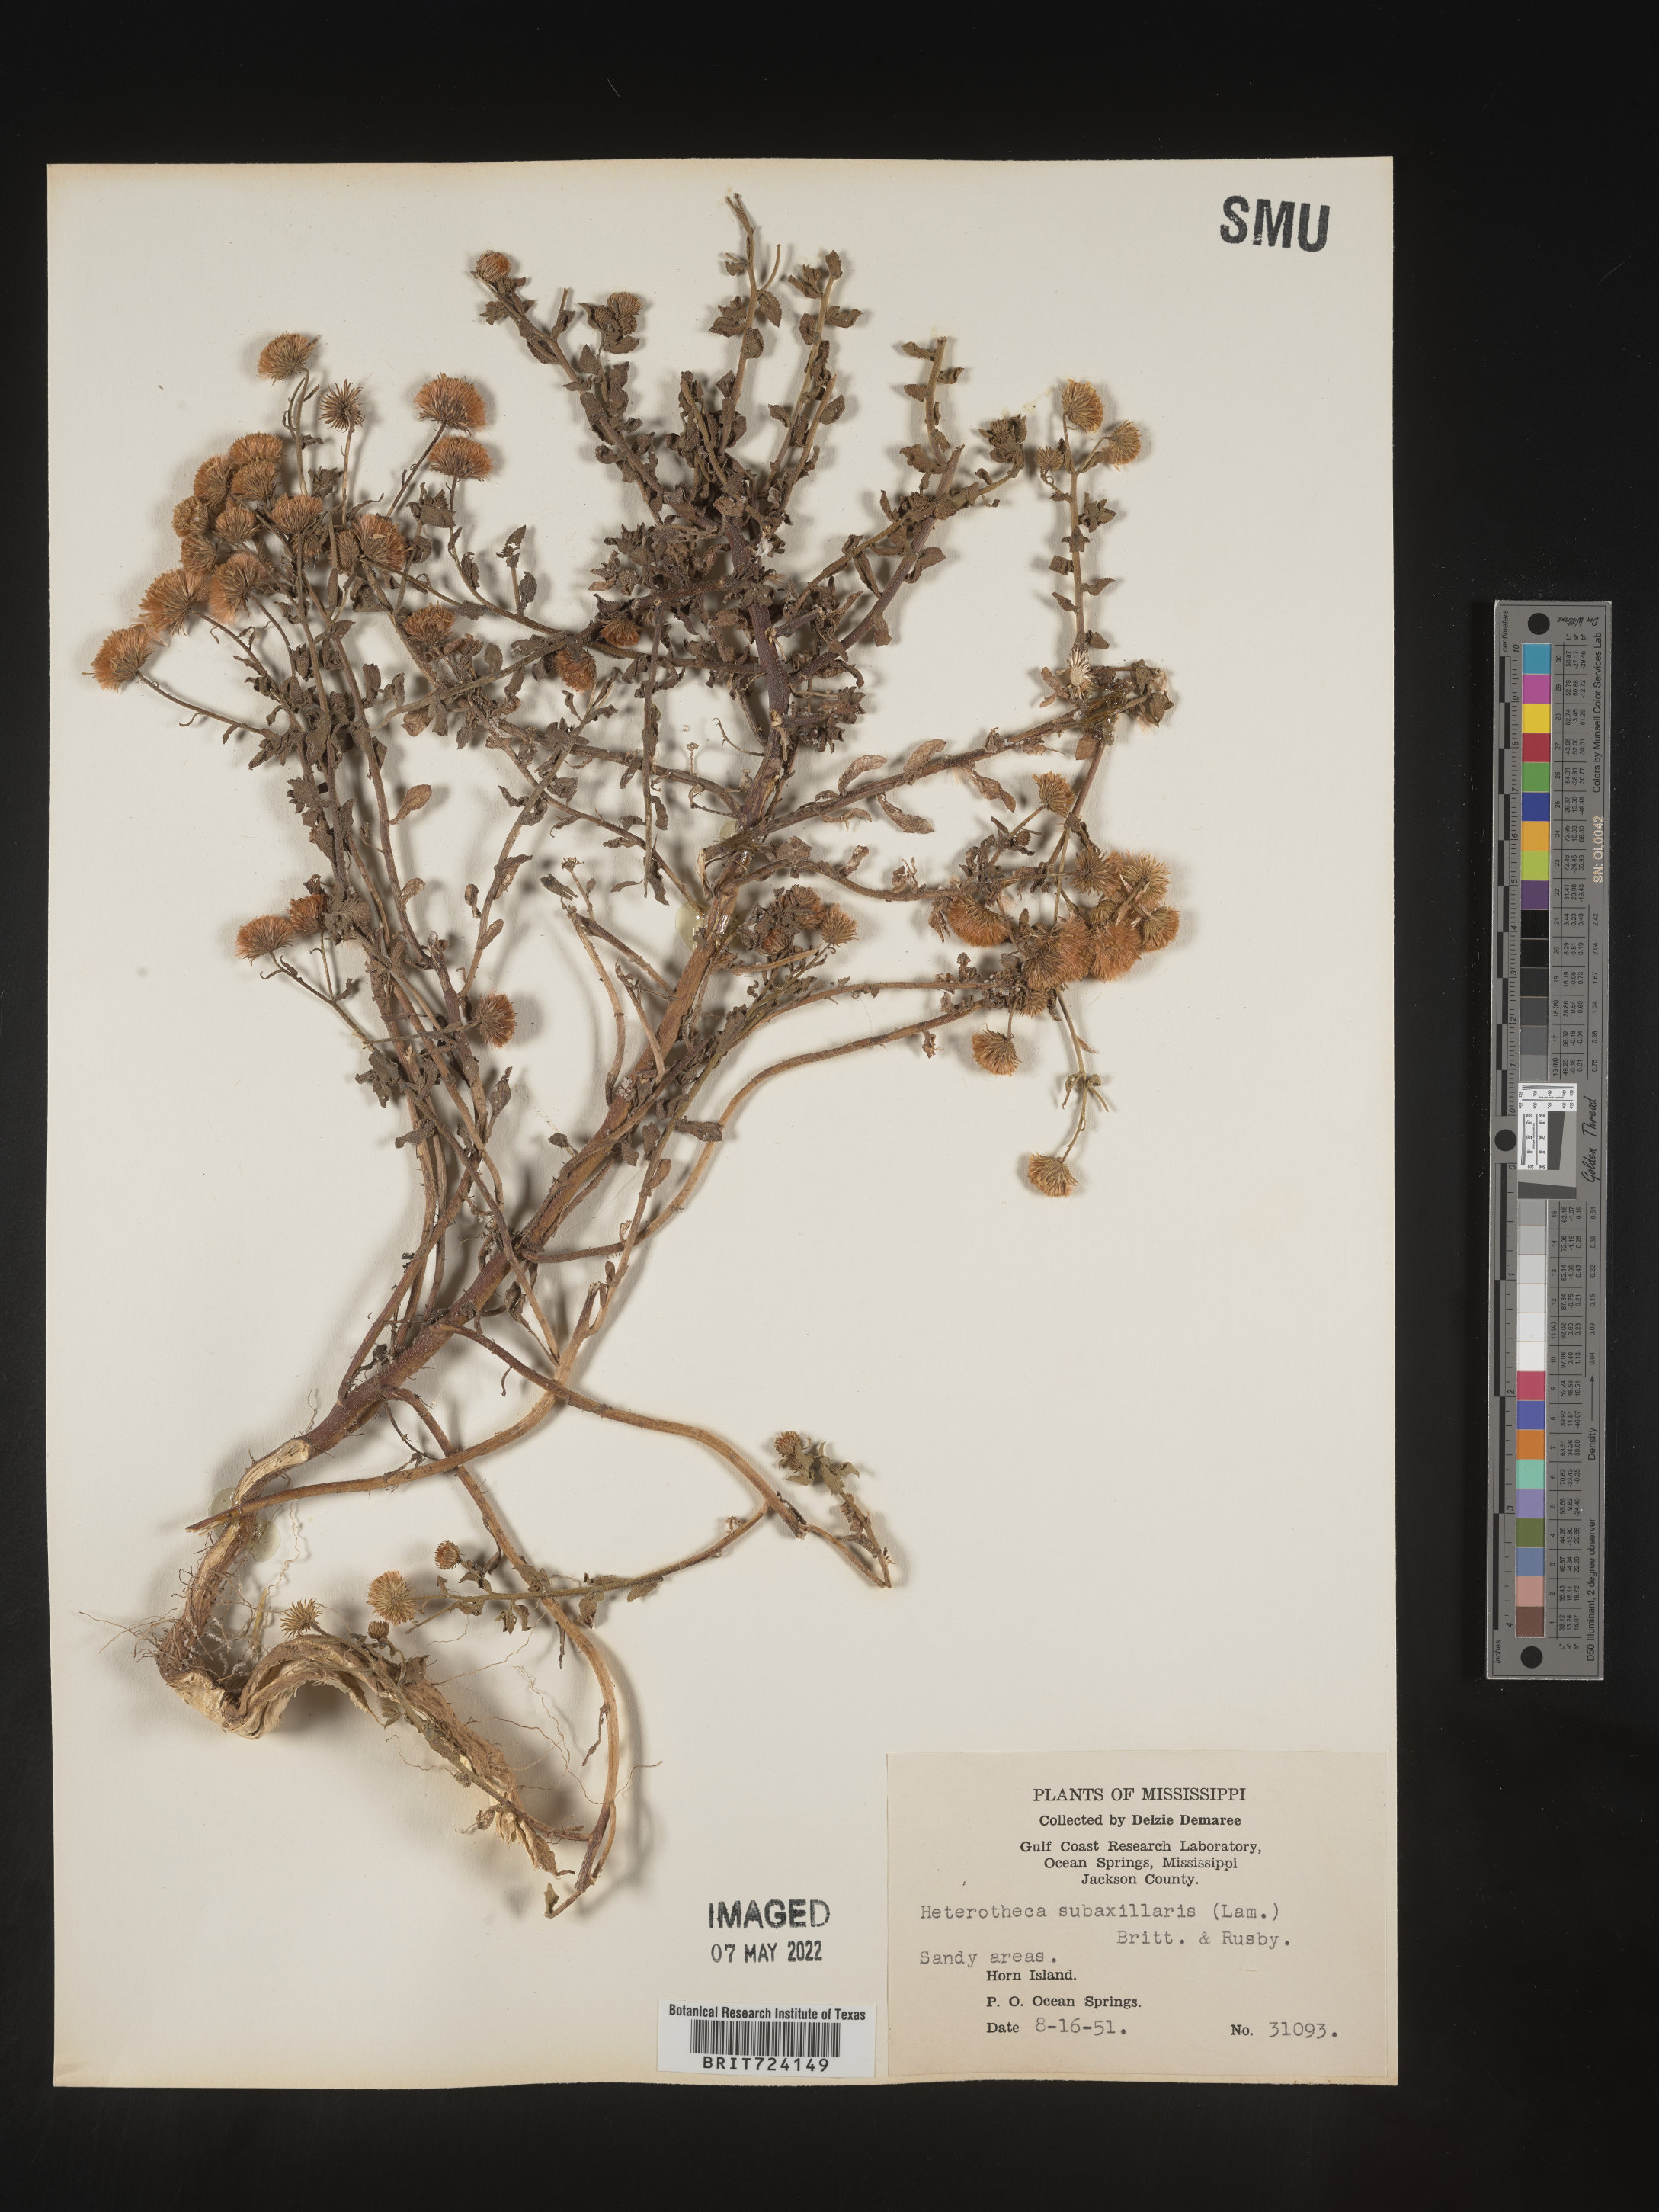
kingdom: Plantae
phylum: Tracheophyta
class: Magnoliopsida
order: Asterales
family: Asteraceae
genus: Heterotheca
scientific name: Heterotheca subaxillaris
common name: Camphorweed
